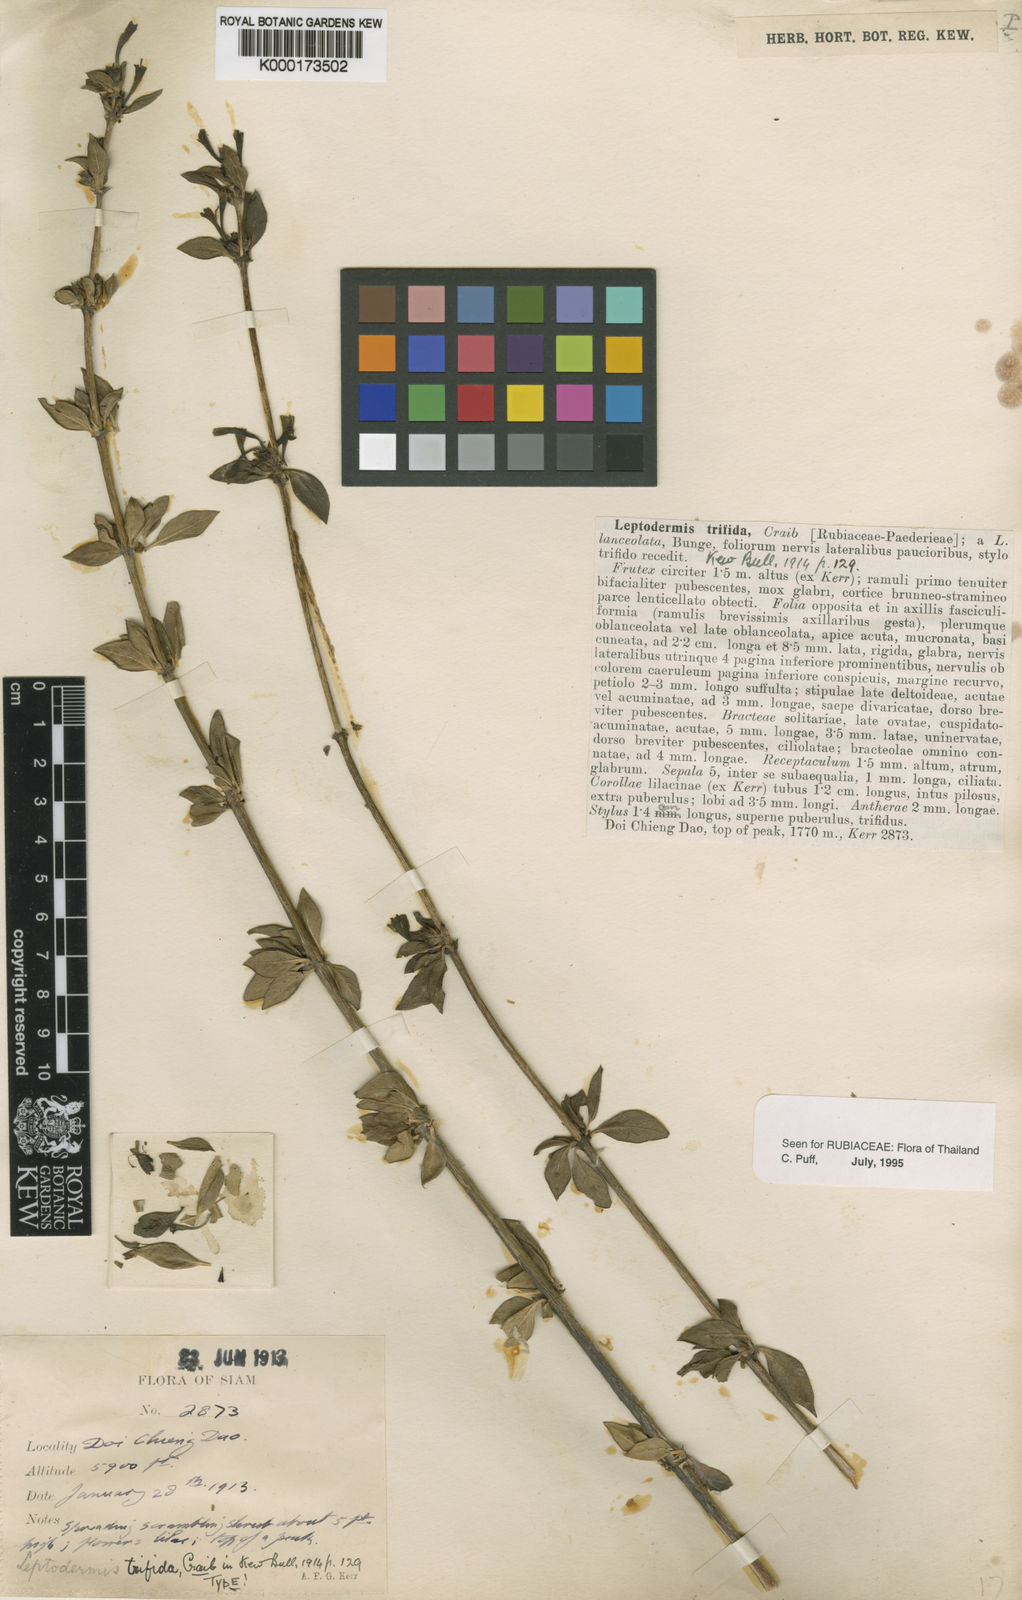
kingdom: Plantae
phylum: Tracheophyta
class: Magnoliopsida
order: Gentianales
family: Rubiaceae
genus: Leptodermis
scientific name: Leptodermis trifida
